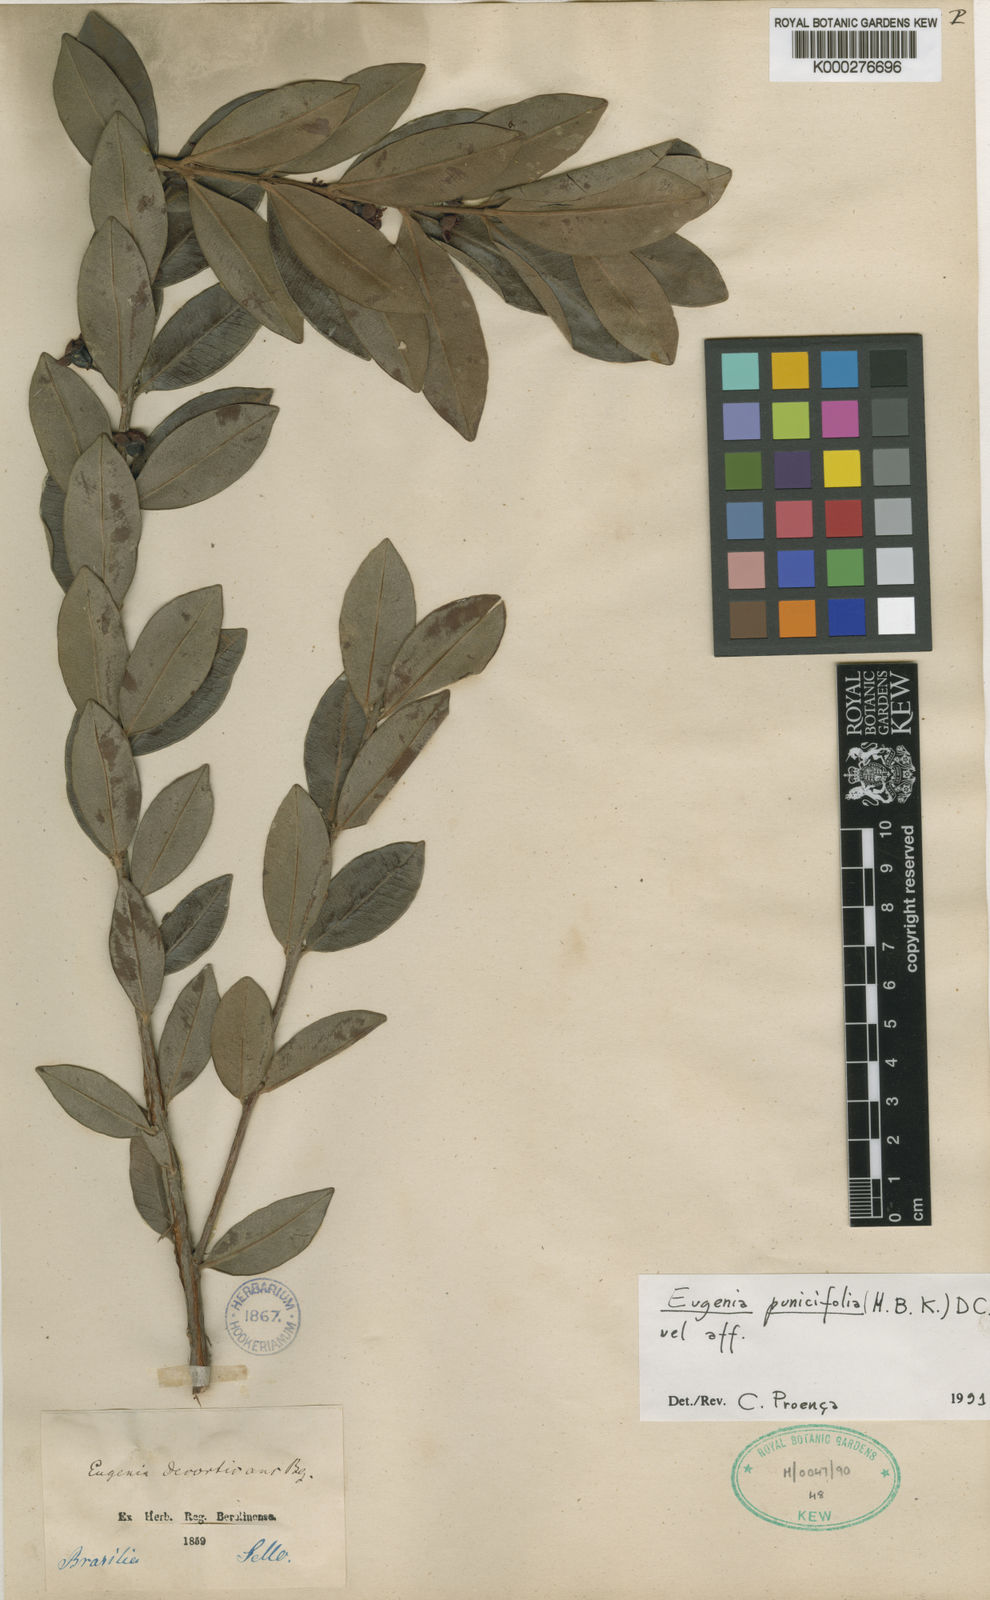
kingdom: Plantae
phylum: Tracheophyta
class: Magnoliopsida
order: Myrtales
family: Myrtaceae
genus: Eugenia
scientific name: Eugenia punicifolia
